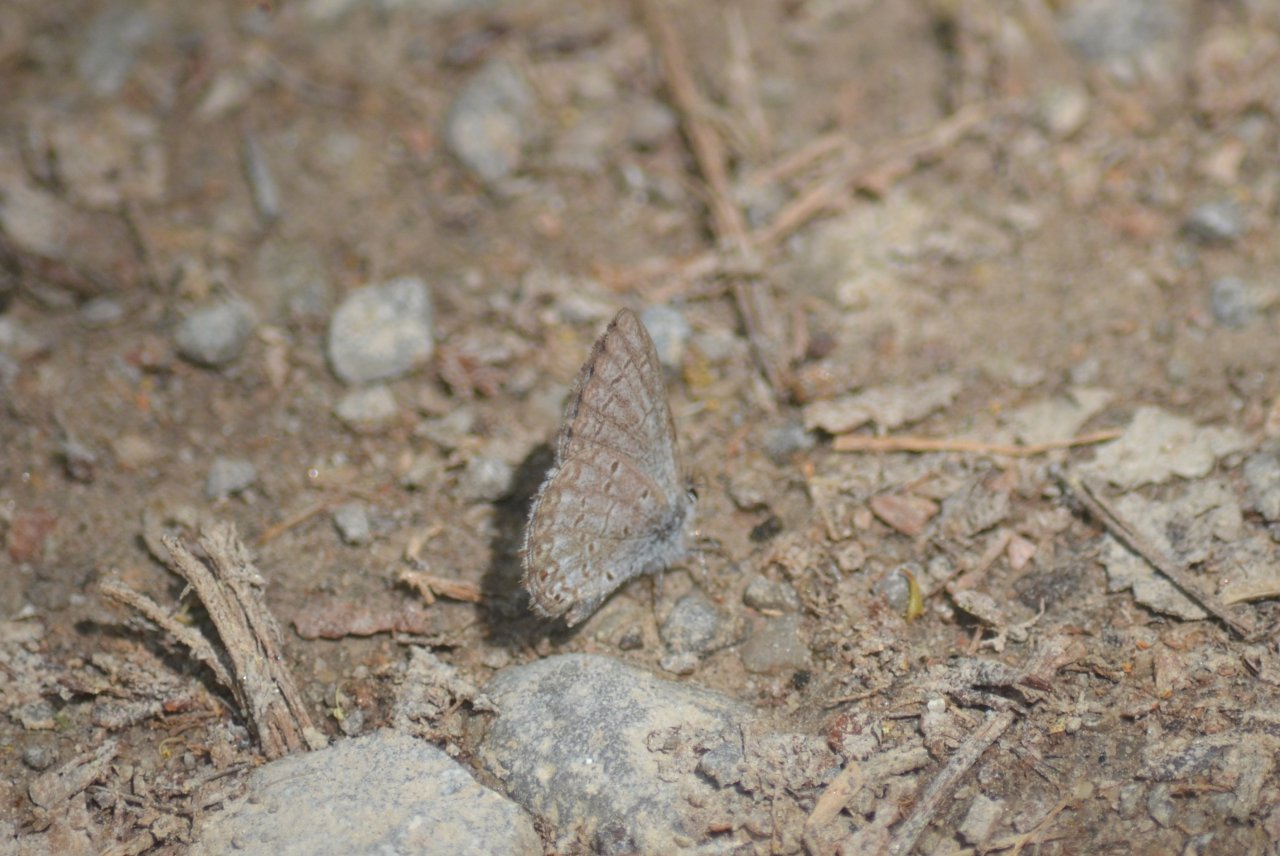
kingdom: Animalia
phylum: Arthropoda
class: Insecta
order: Lepidoptera
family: Lycaenidae
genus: Celastrina
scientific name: Celastrina lucia
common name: Northern Spring Azure
